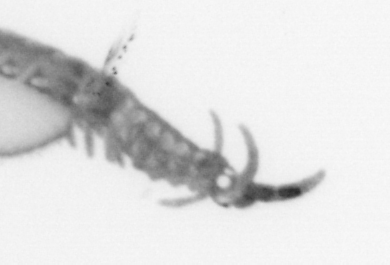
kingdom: Animalia
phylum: Annelida
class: Polychaeta
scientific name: Polychaeta
